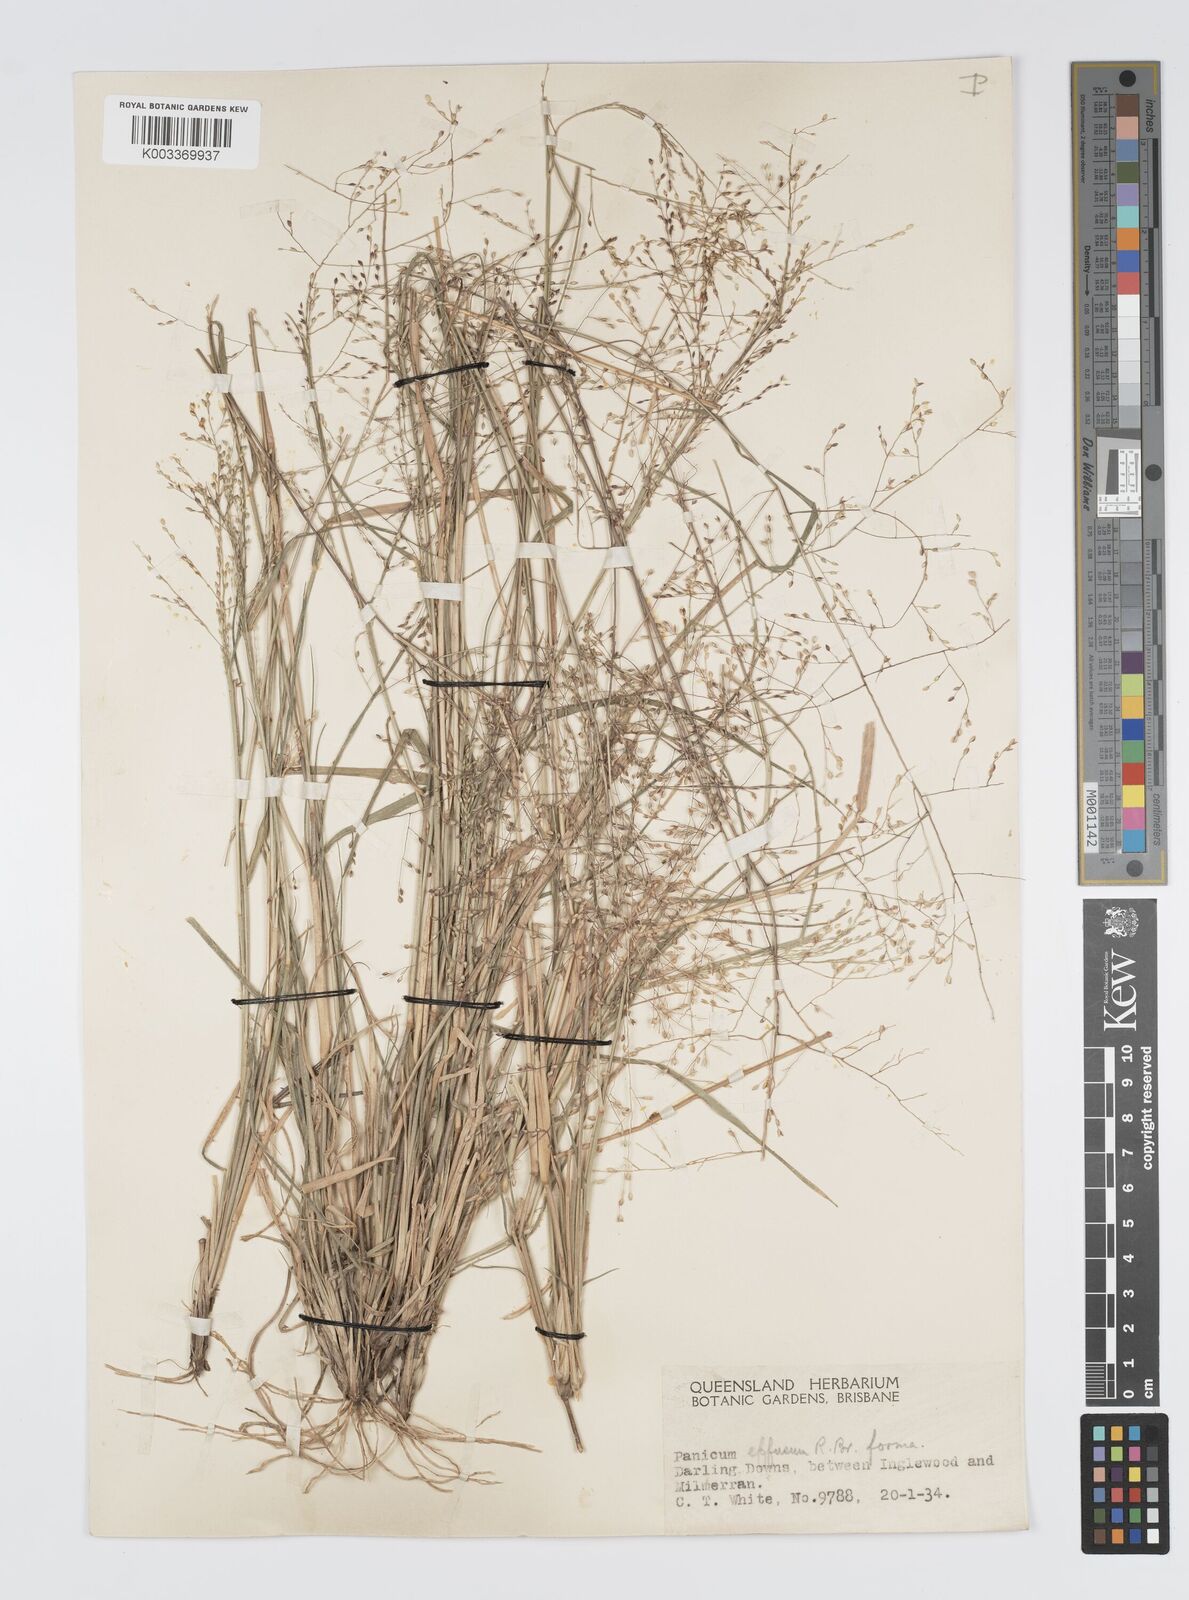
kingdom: Plantae
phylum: Tracheophyta
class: Liliopsida
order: Poales
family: Poaceae
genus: Panicum
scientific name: Panicum effusum
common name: Hairy panic grass
